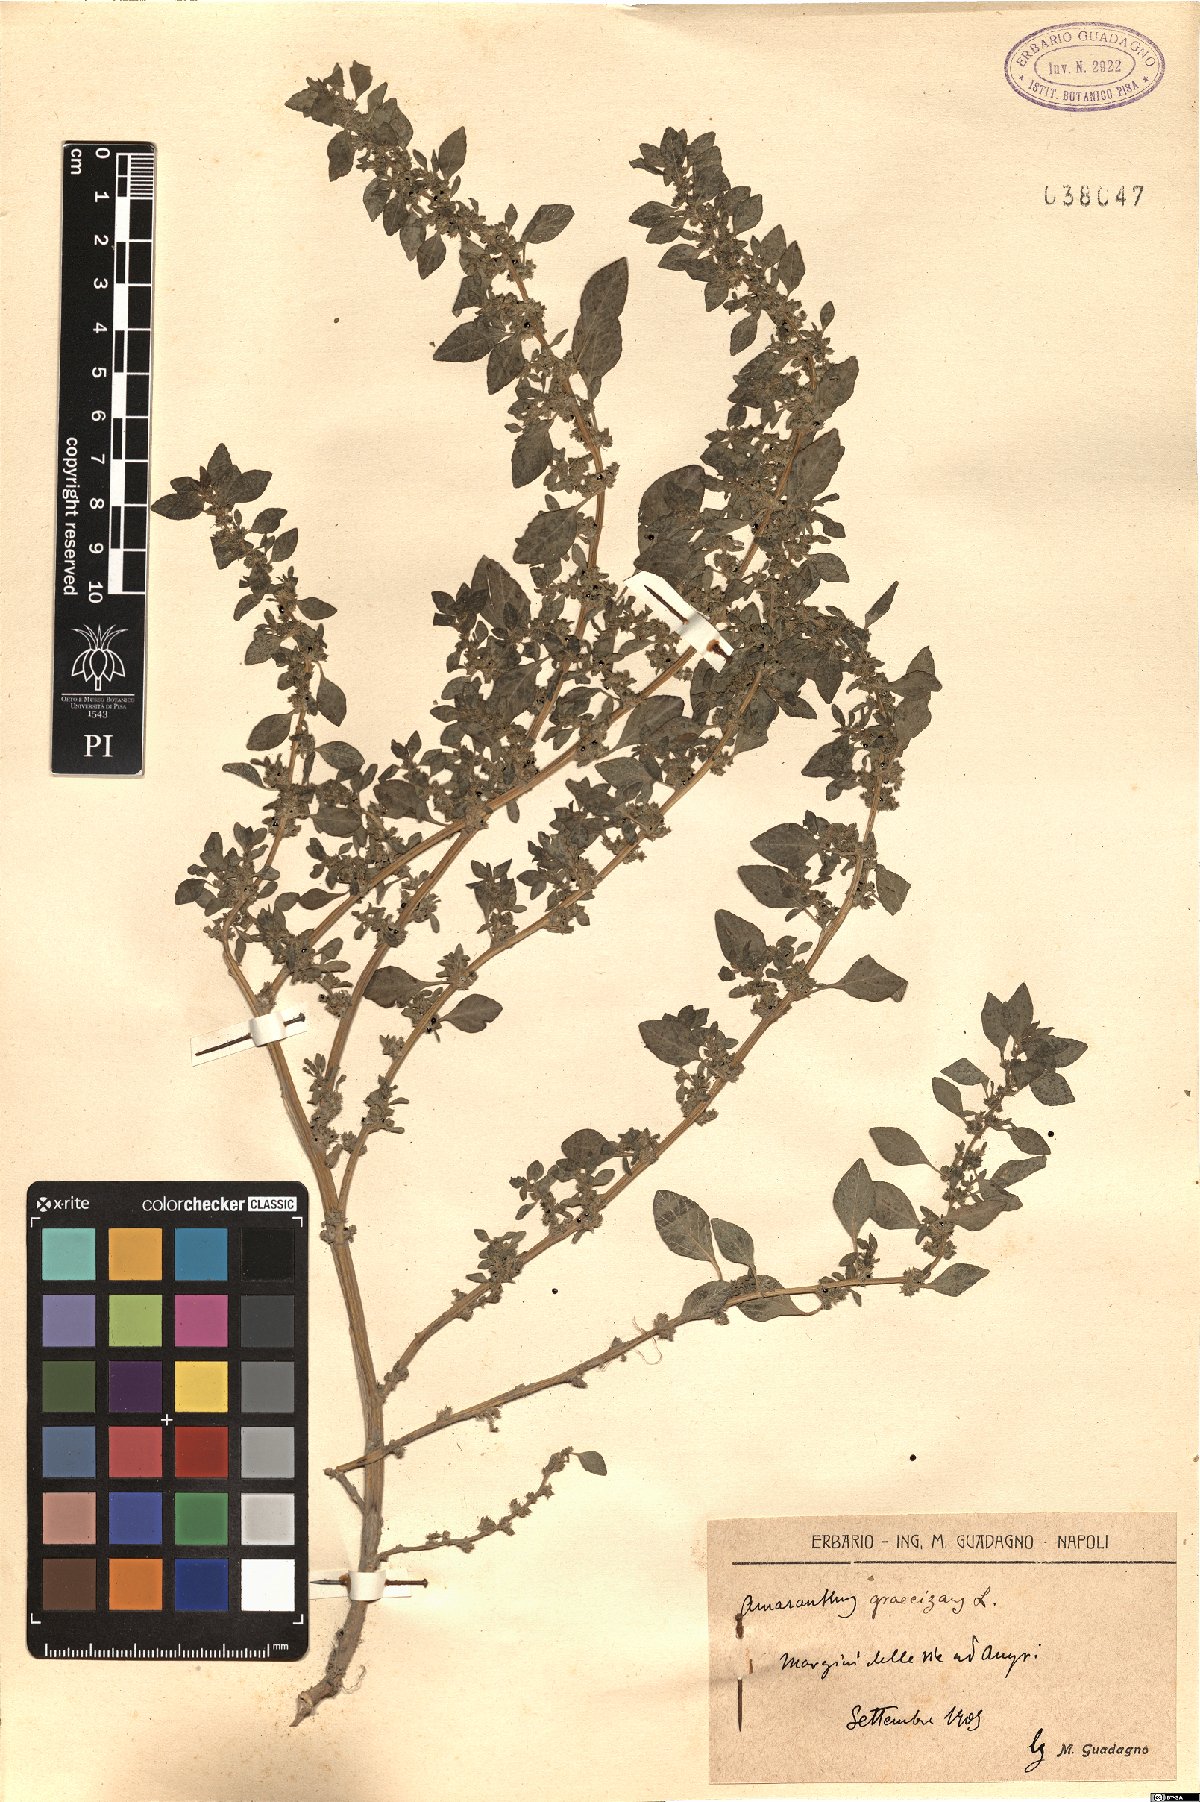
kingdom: Plantae
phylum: Tracheophyta
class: Magnoliopsida
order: Caryophyllales
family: Amaranthaceae
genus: Amaranthus
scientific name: Amaranthus graecizans
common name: Mediterranean amaranth
